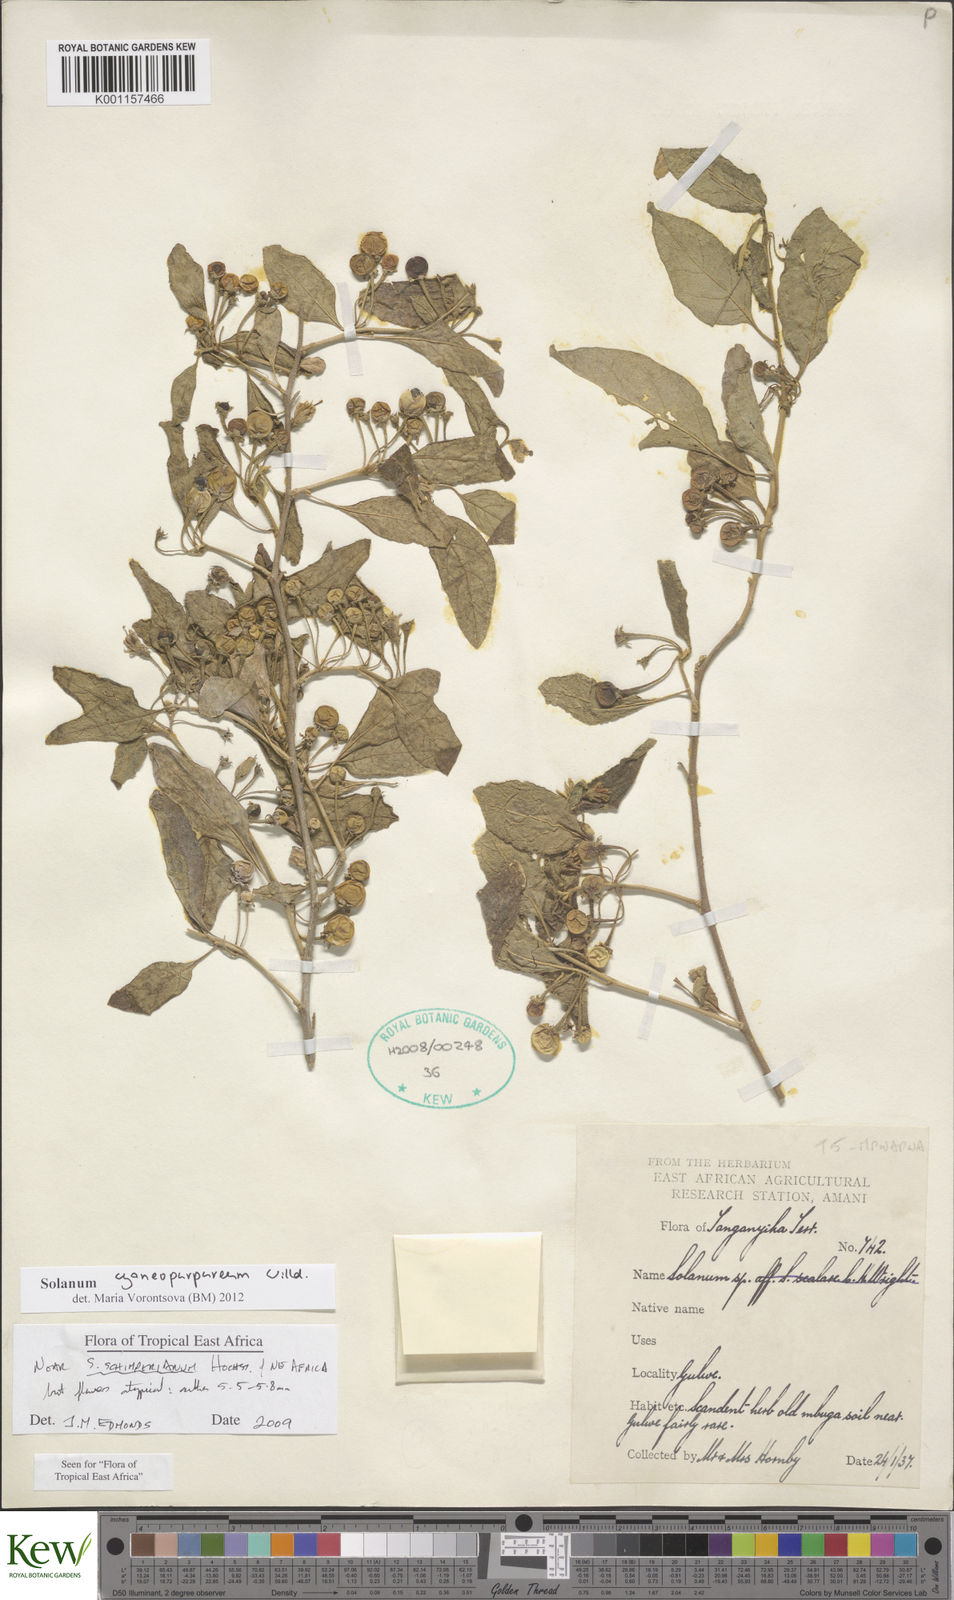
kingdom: Plantae
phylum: Tracheophyta
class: Magnoliopsida
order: Solanales
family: Solanaceae
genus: Solanum
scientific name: Solanum cyaneopurpureum
